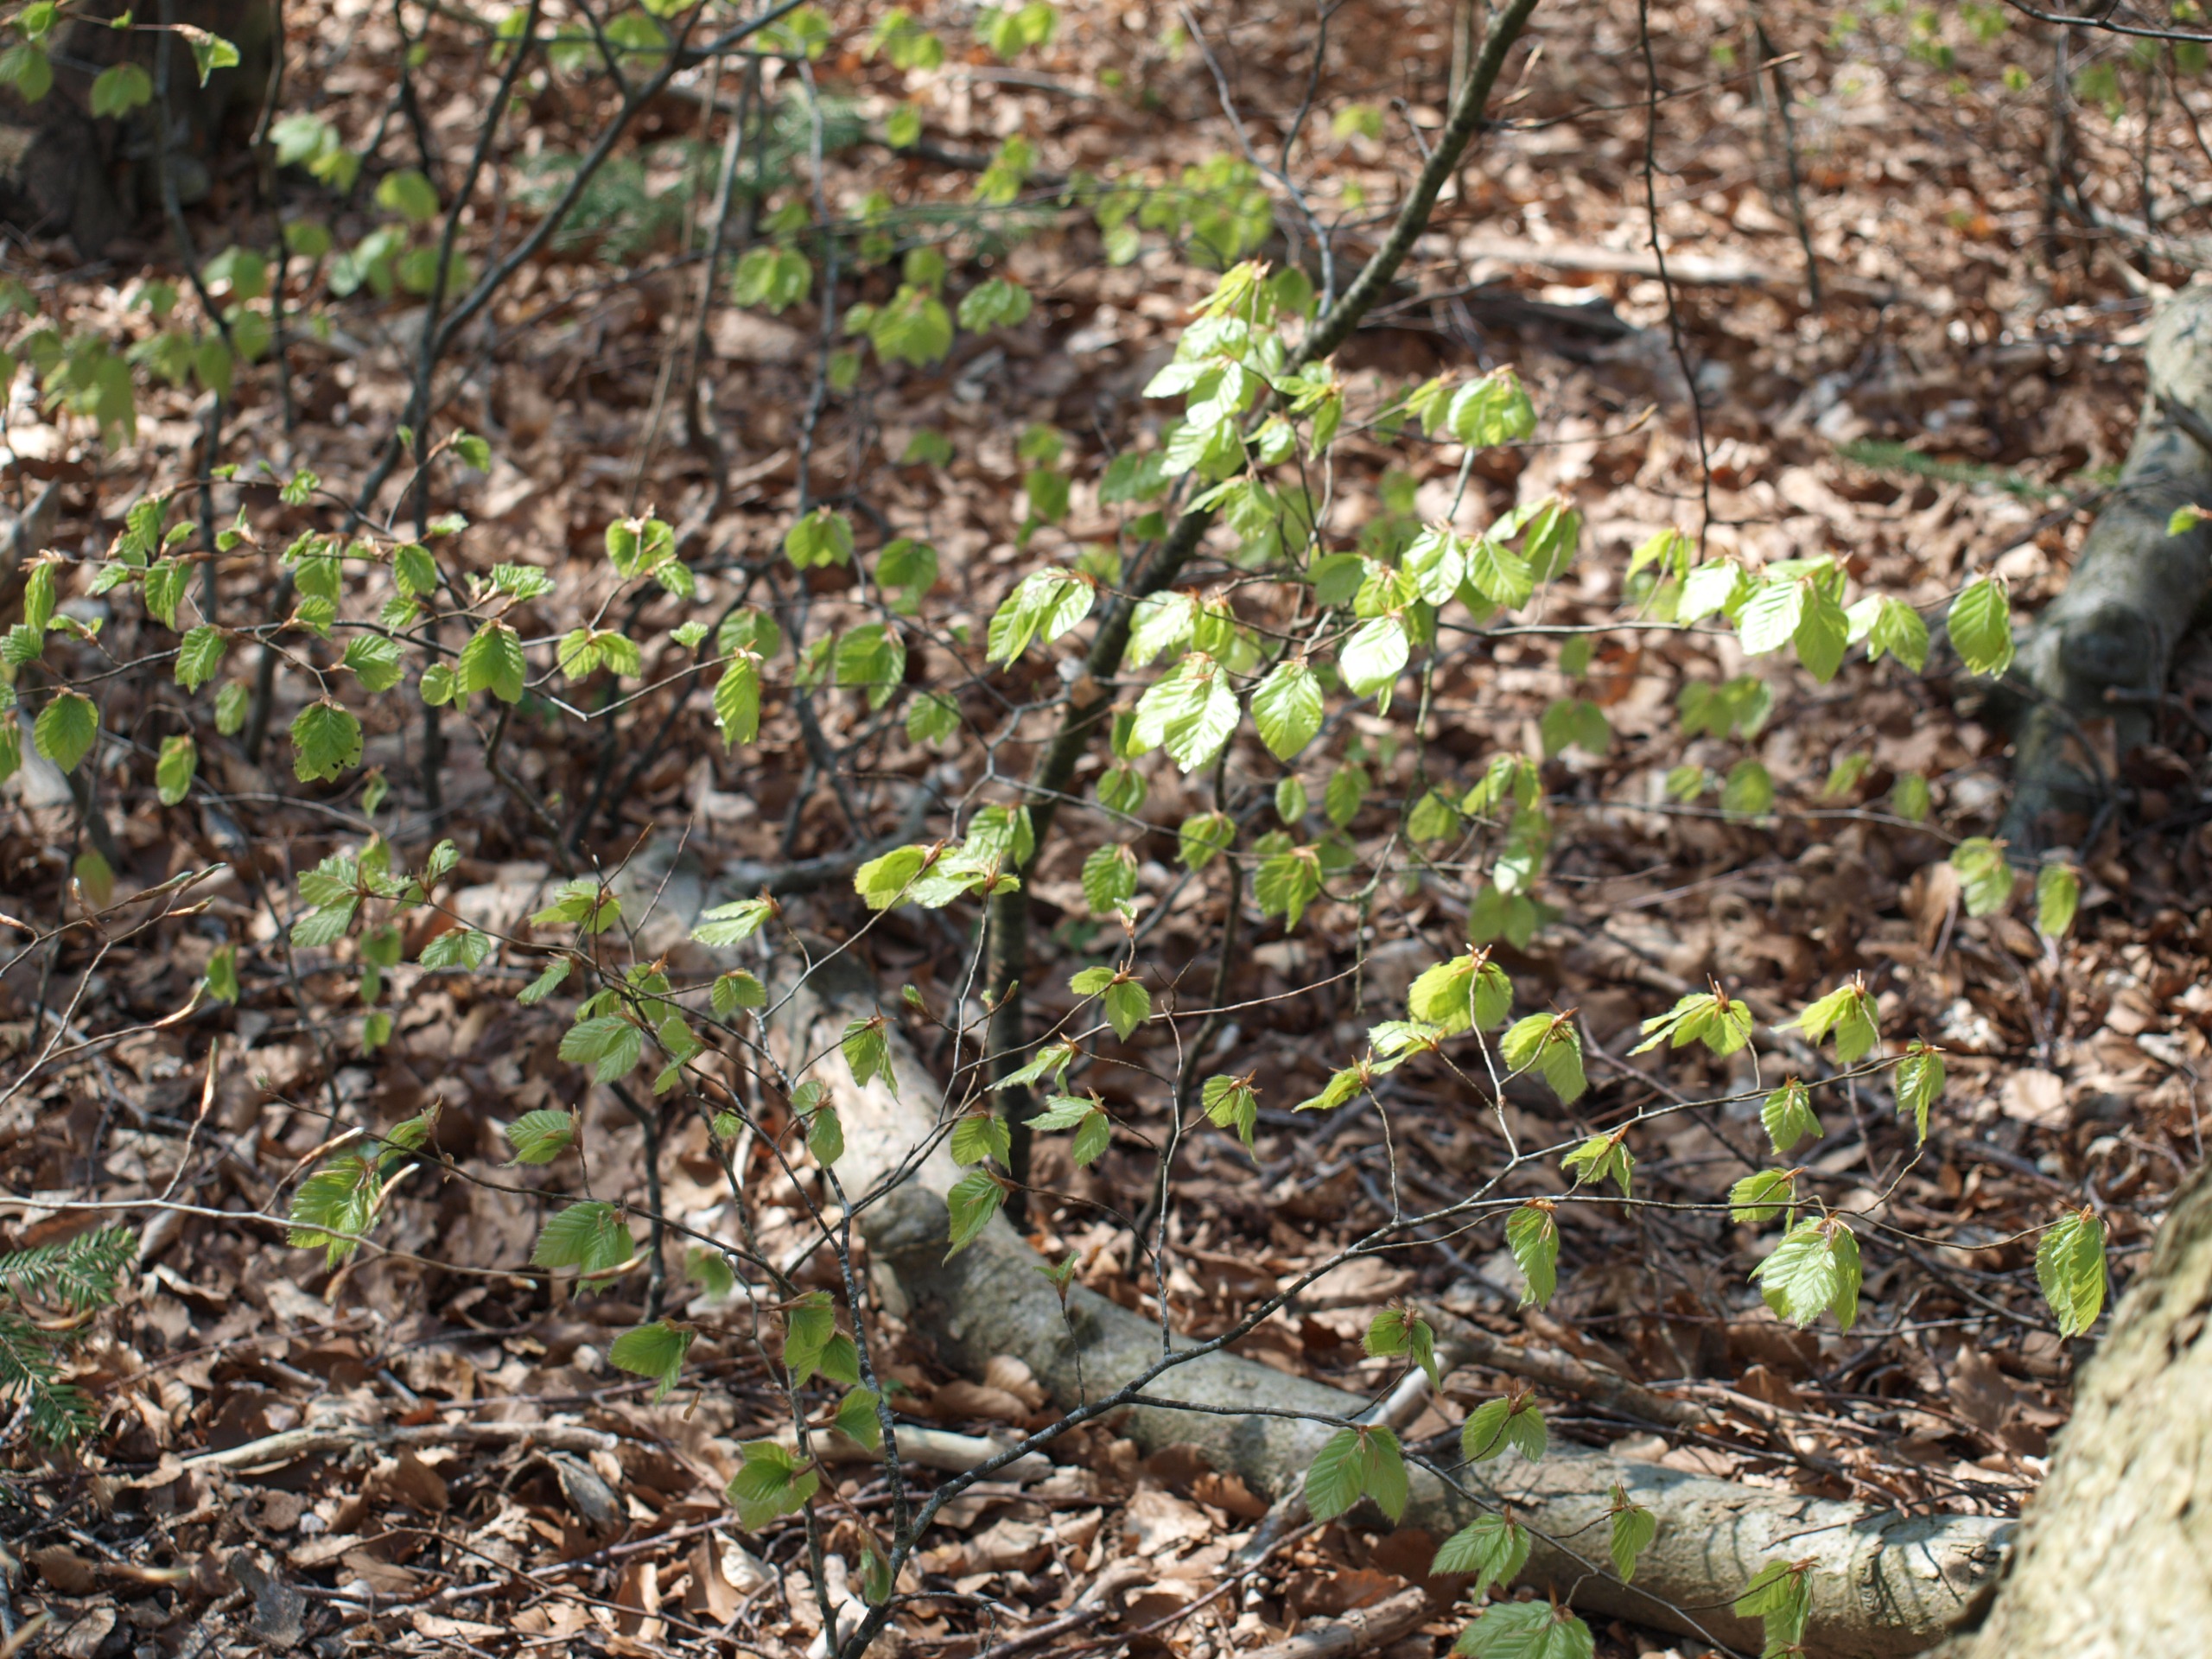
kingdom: Plantae
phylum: Tracheophyta
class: Magnoliopsida
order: Fagales
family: Fagaceae
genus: Fagus
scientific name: Fagus sylvatica
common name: Bøg
